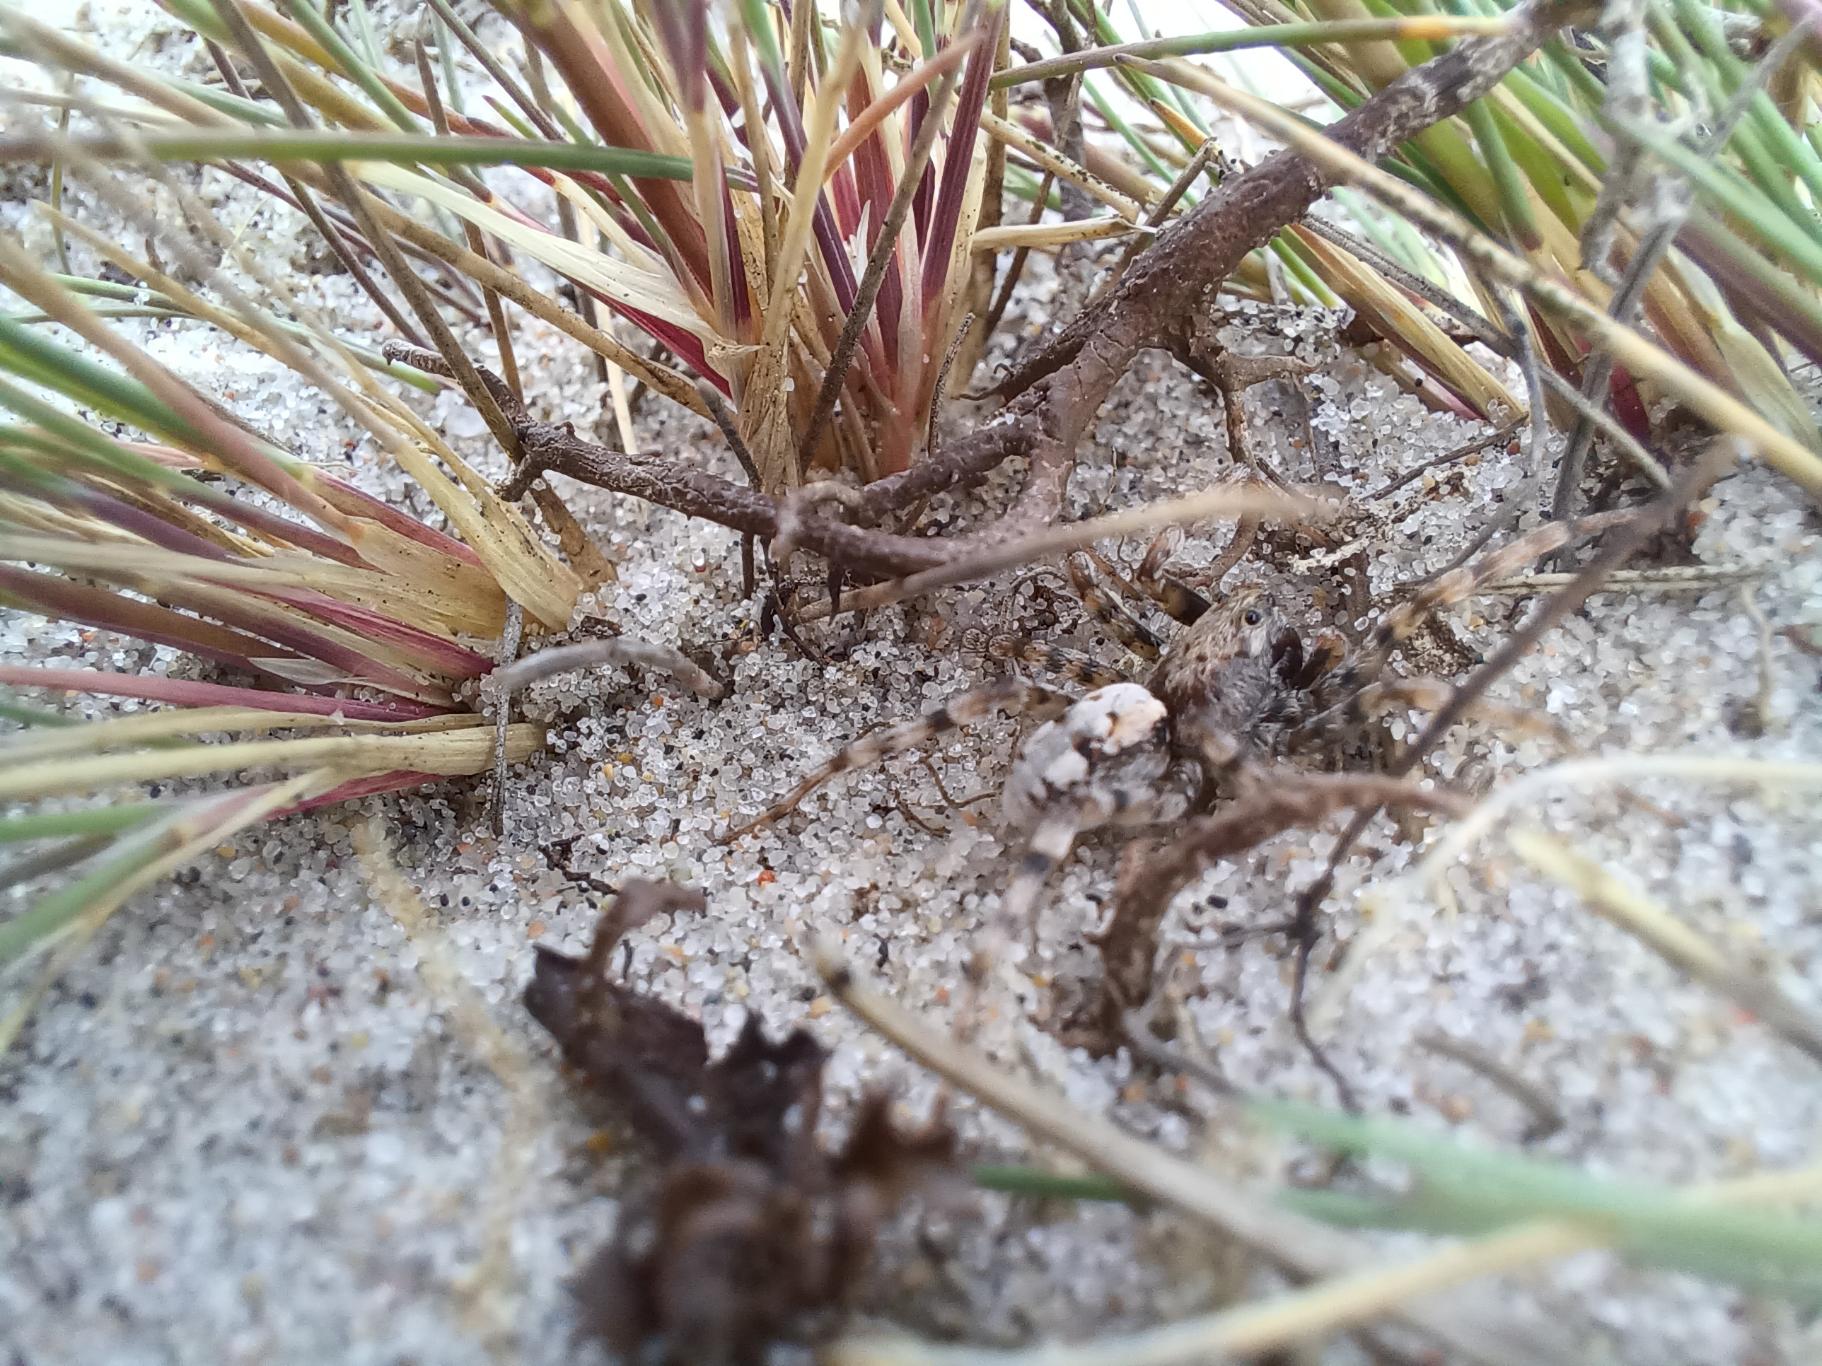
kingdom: Animalia
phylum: Arthropoda
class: Arachnida
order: Araneae
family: Lycosidae
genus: Arctosa
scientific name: Arctosa perita
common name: Klitgraveedderkop
